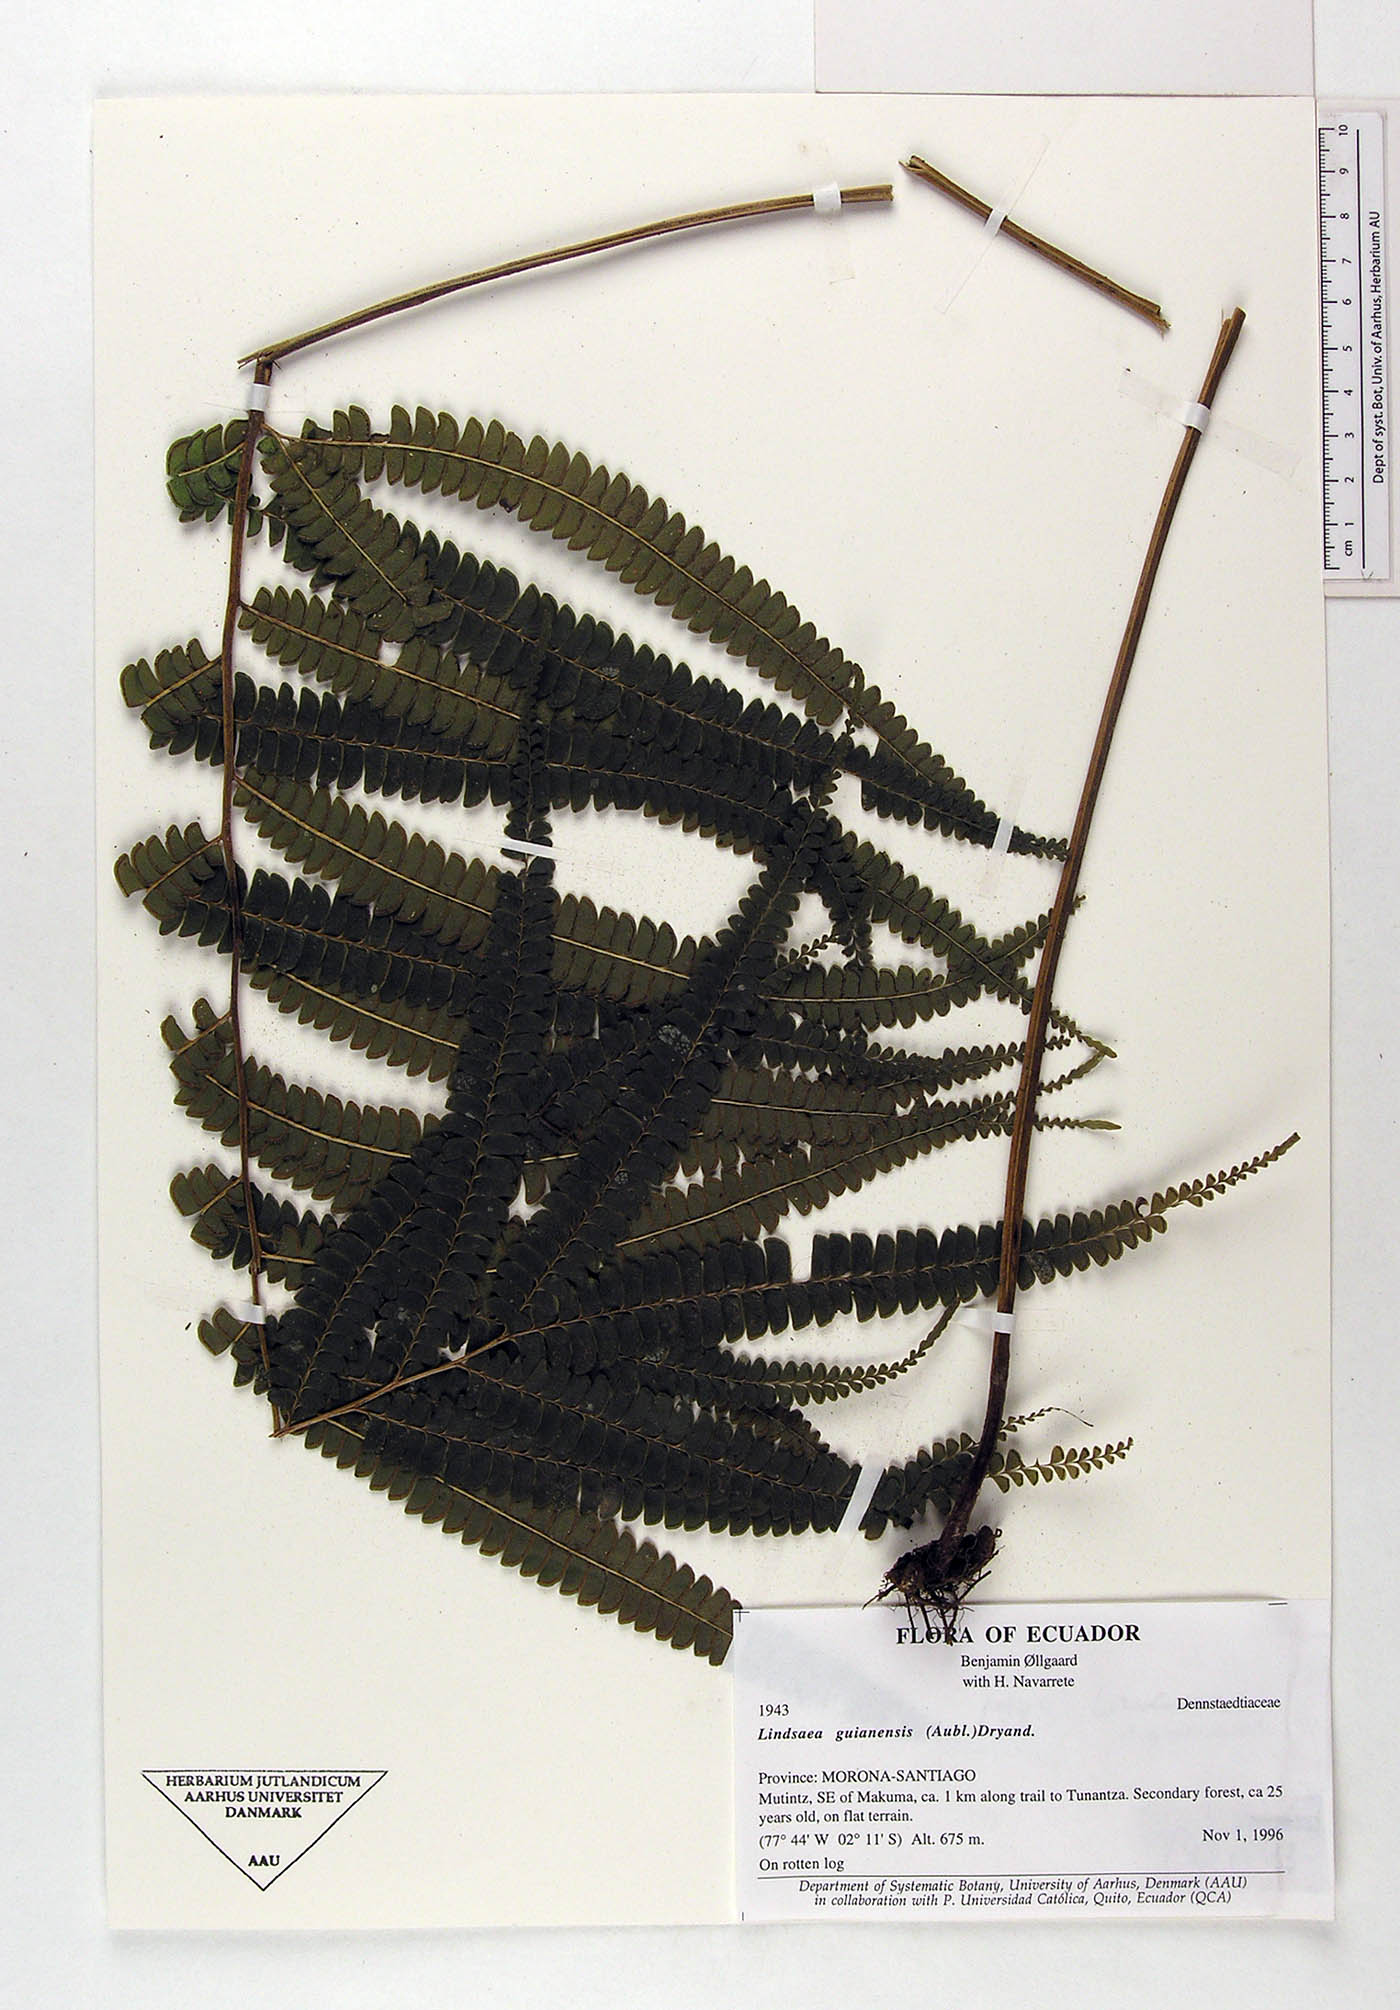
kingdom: Plantae
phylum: Tracheophyta
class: Polypodiopsida
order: Polypodiales
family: Lindsaeaceae
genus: Lindsaea
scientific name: Lindsaea guianensis
